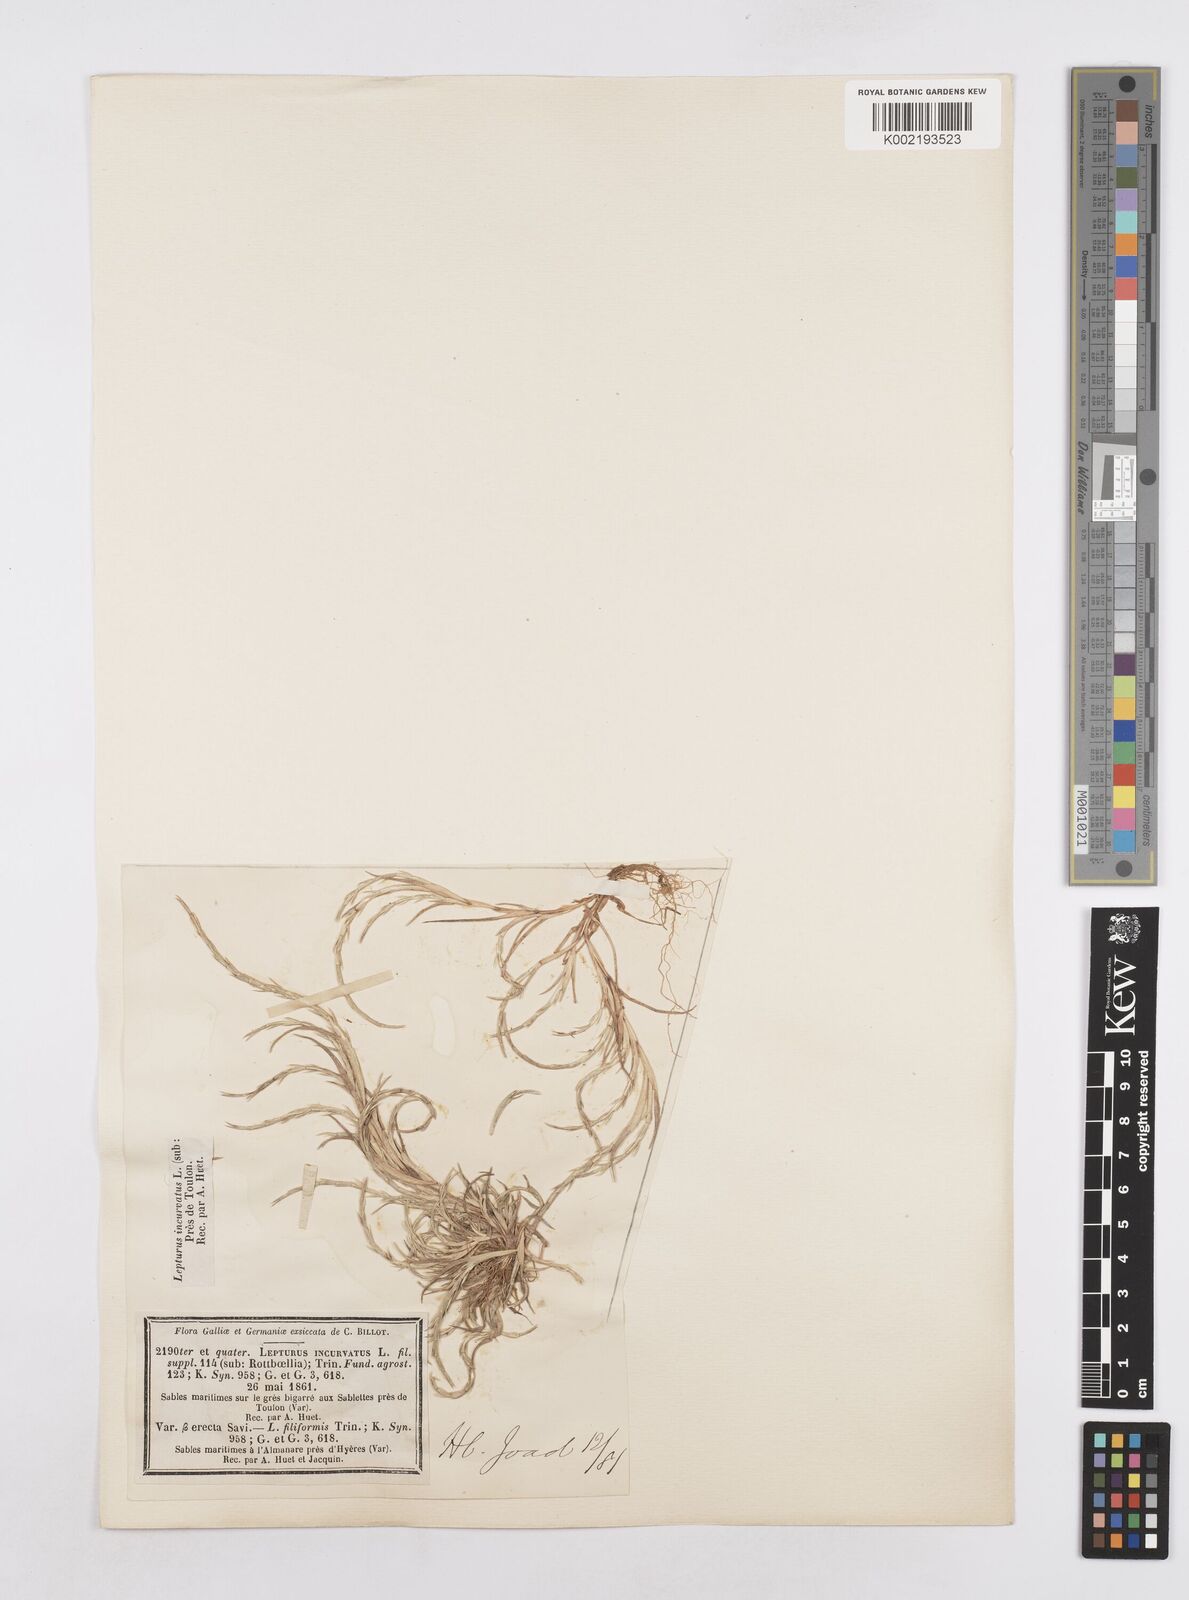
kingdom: Plantae
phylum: Tracheophyta
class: Liliopsida
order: Poales
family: Poaceae
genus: Parapholis
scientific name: Parapholis incurva
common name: Curved sicklegrass
